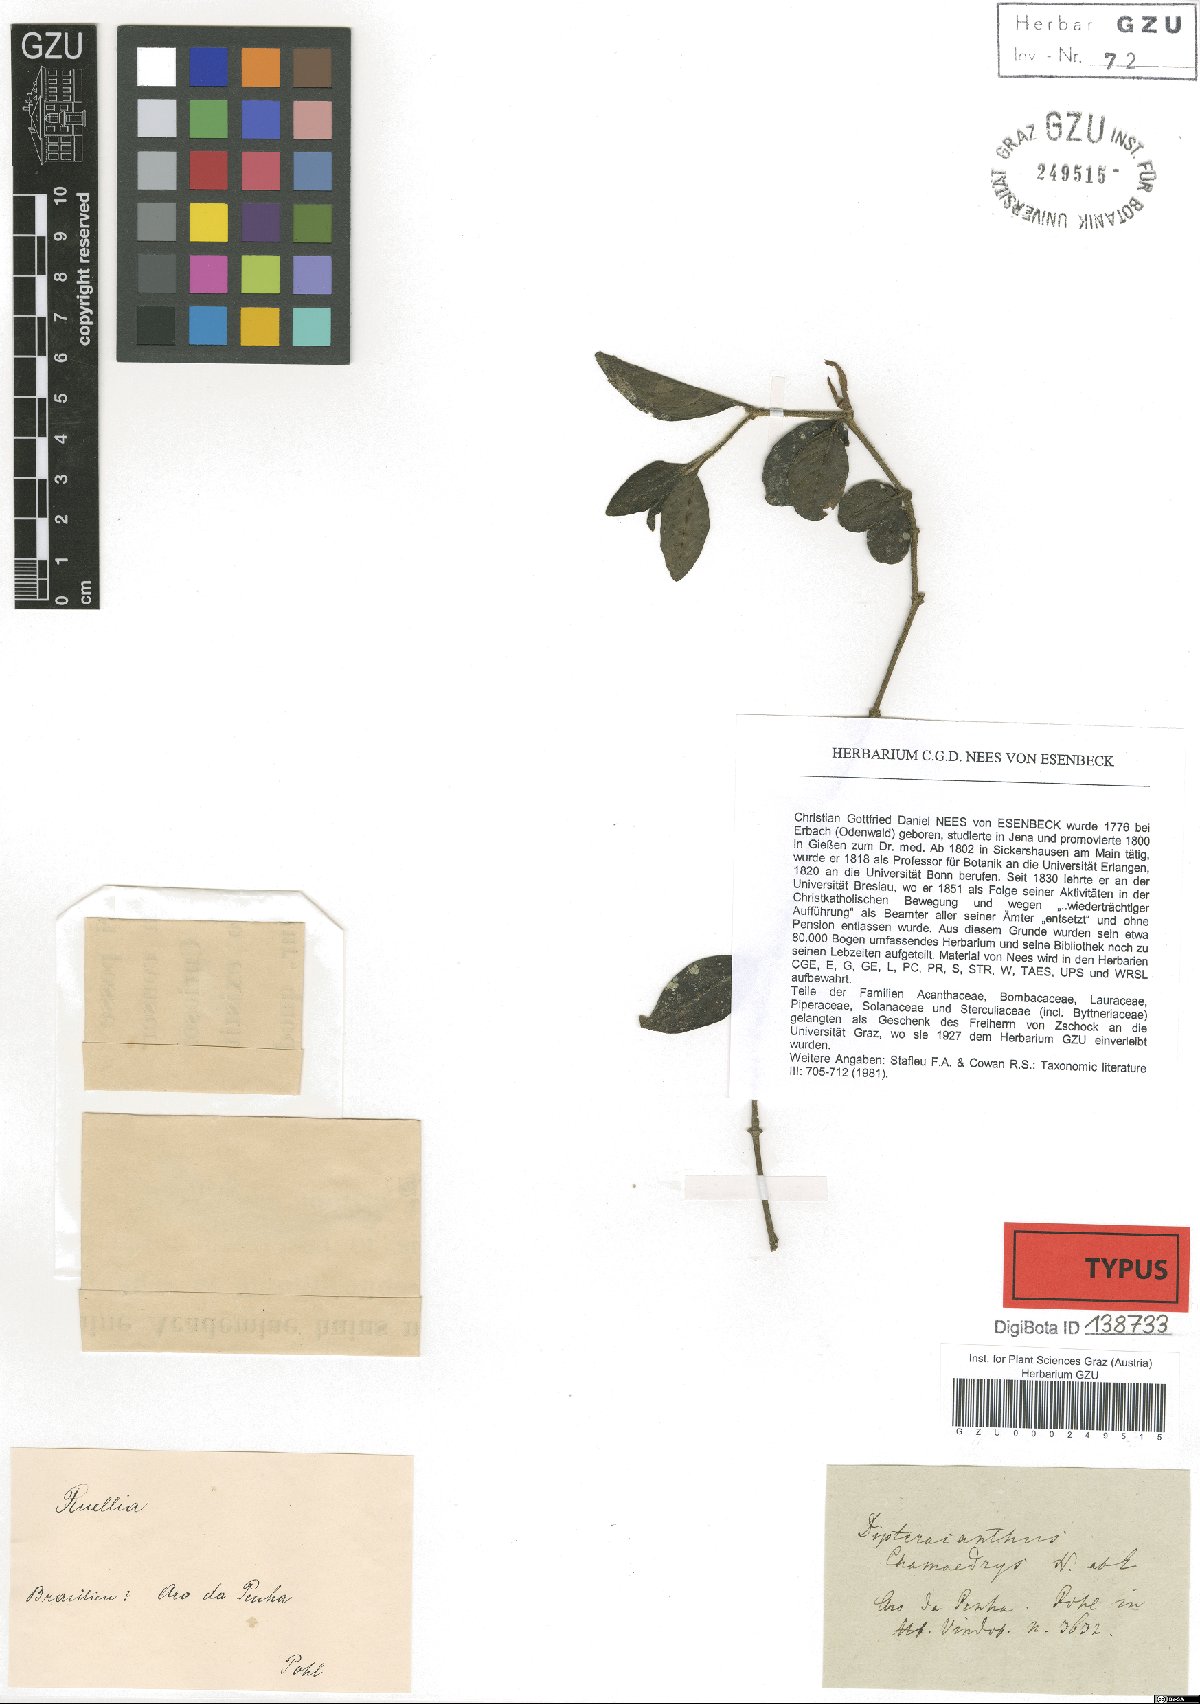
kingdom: Plantae
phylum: Tracheophyta
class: Magnoliopsida
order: Lamiales
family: Acanthaceae
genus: Ruellia
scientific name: Ruellia chamaedrys
